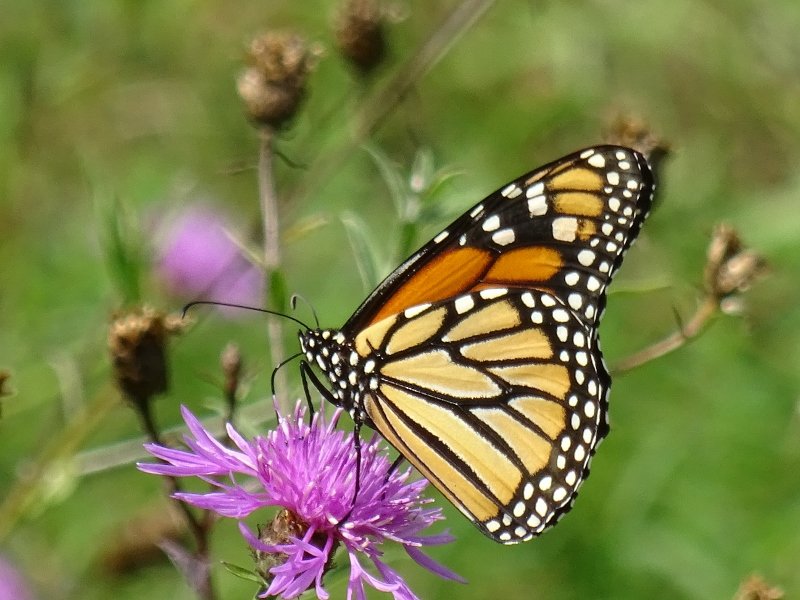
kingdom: Animalia
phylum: Arthropoda
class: Insecta
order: Lepidoptera
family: Nymphalidae
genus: Danaus
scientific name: Danaus plexippus
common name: Monarch
